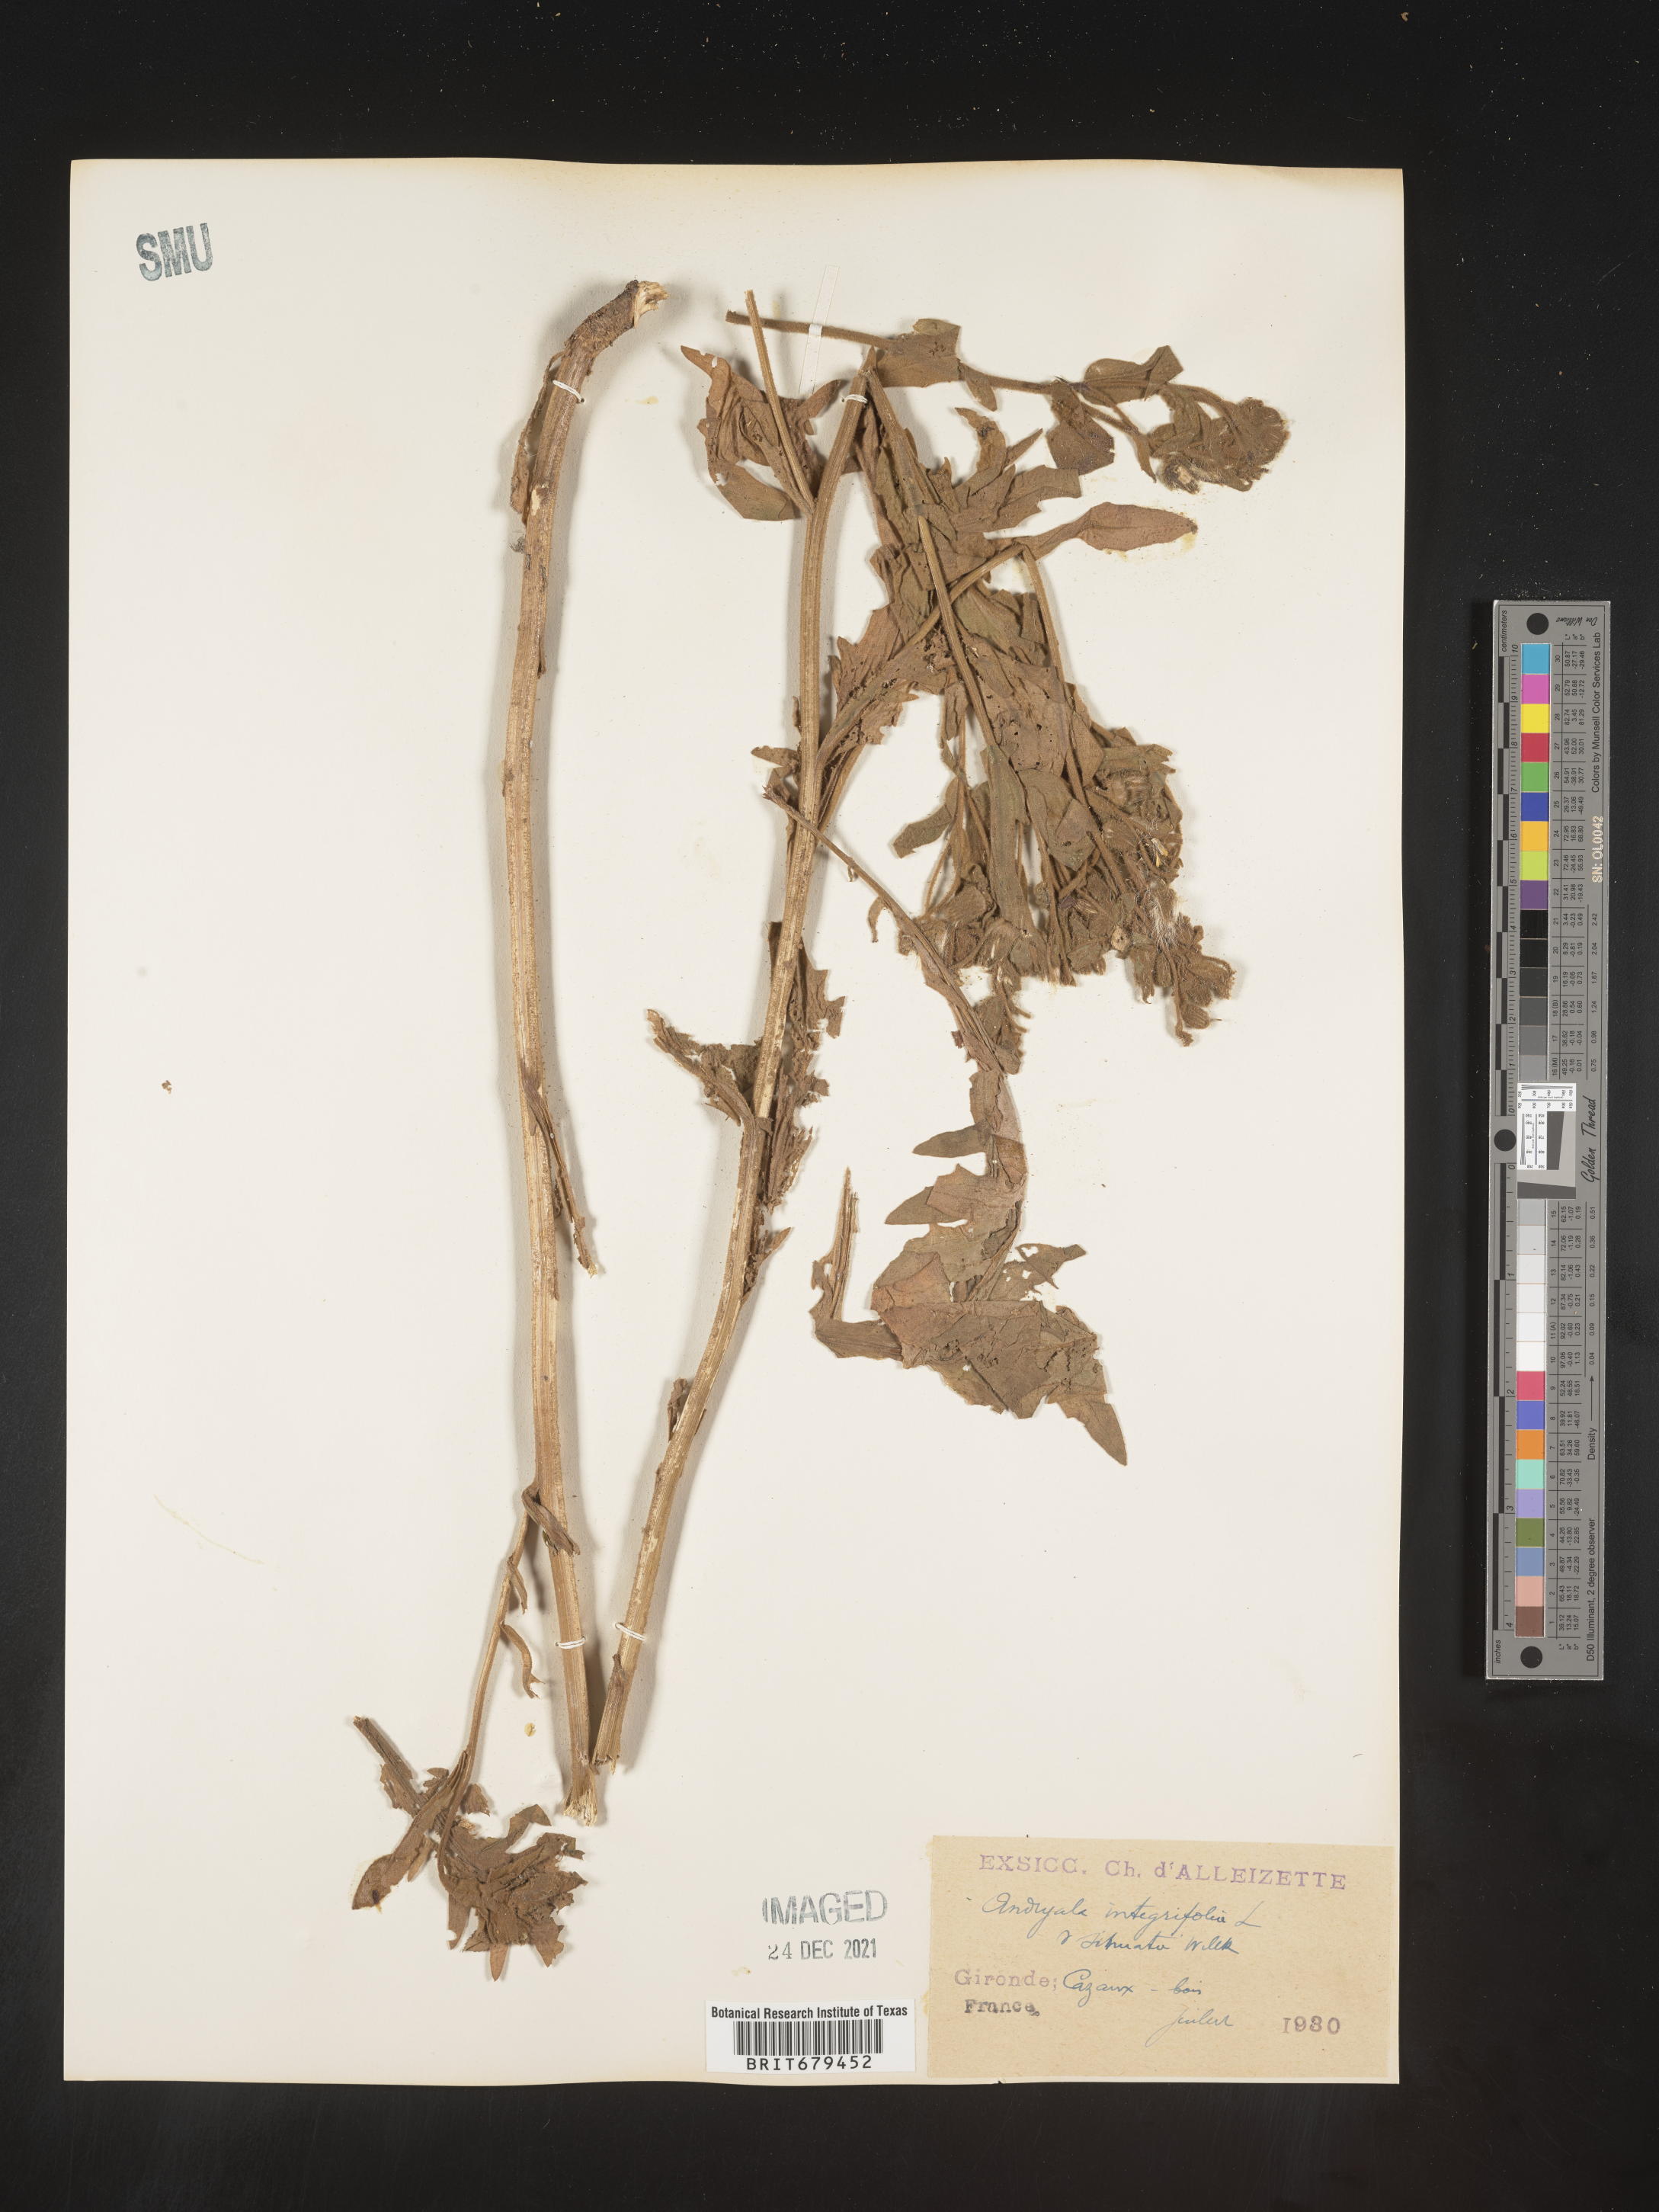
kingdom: Plantae
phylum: Tracheophyta
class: Magnoliopsida
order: Asterales
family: Asteraceae
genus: Andryala
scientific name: Andryala
